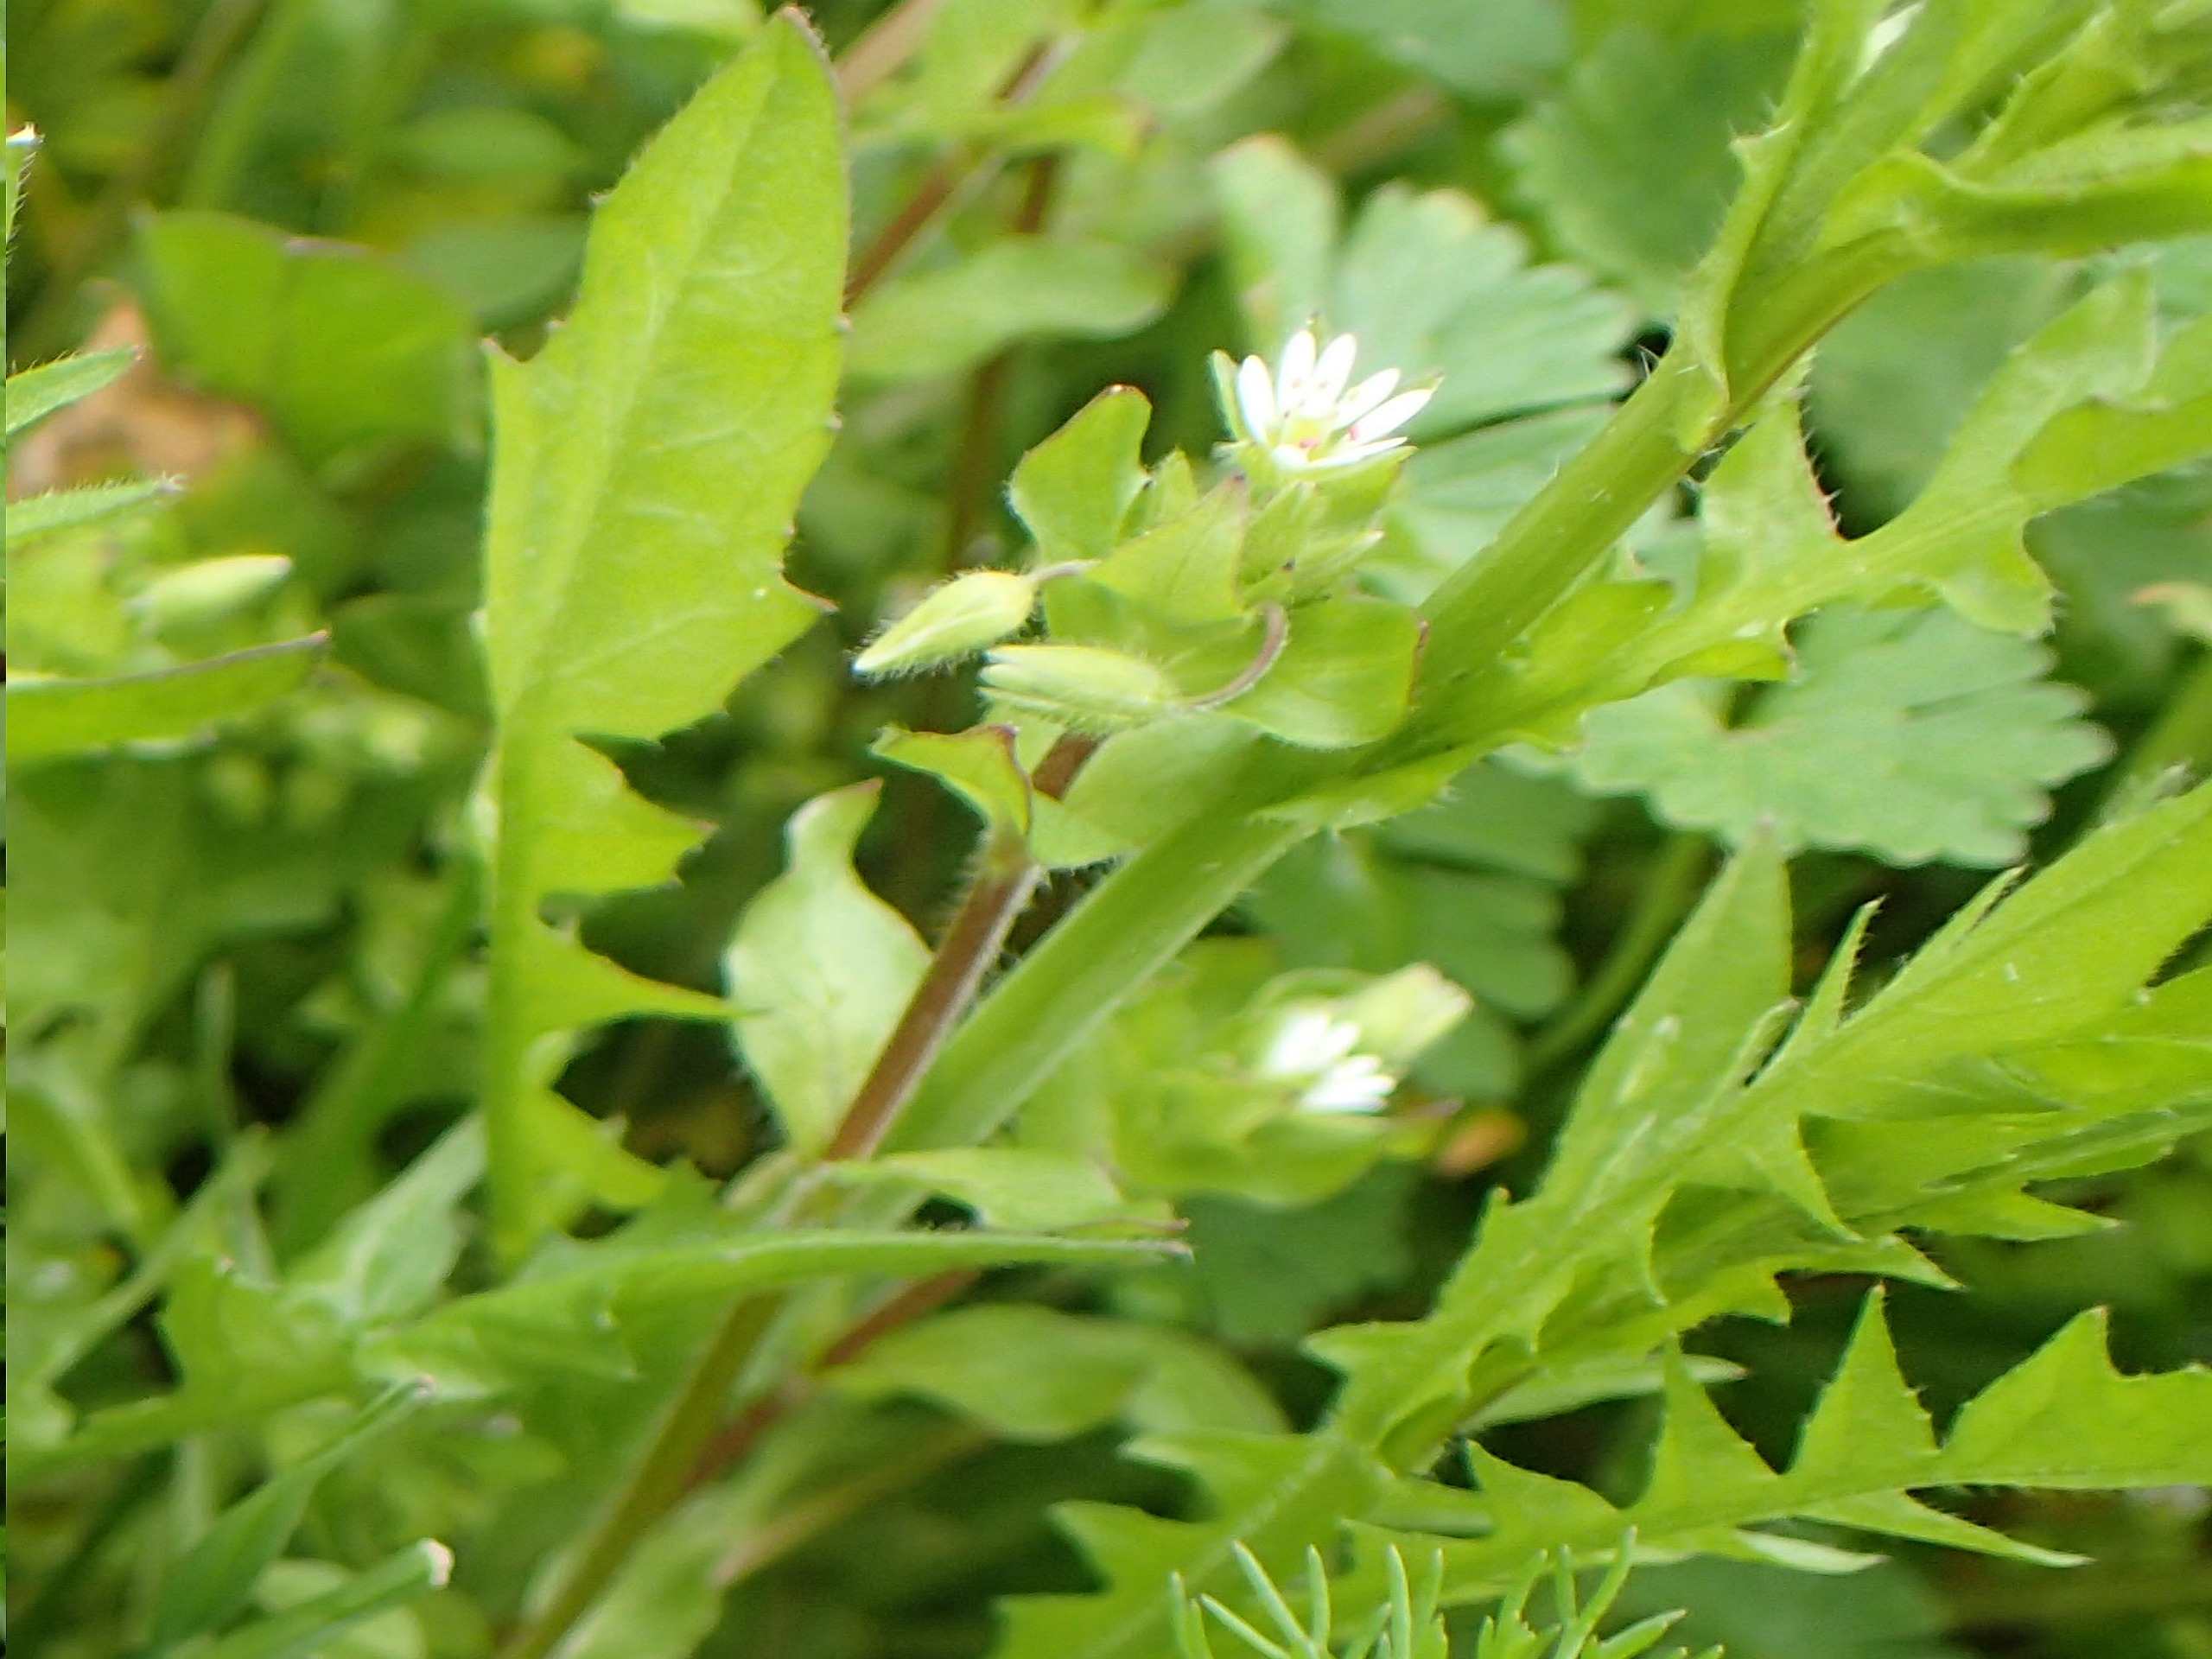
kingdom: Plantae
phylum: Tracheophyta
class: Magnoliopsida
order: Caryophyllales
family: Caryophyllaceae
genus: Stellaria
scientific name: Stellaria media
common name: Almindelig fuglegræs
